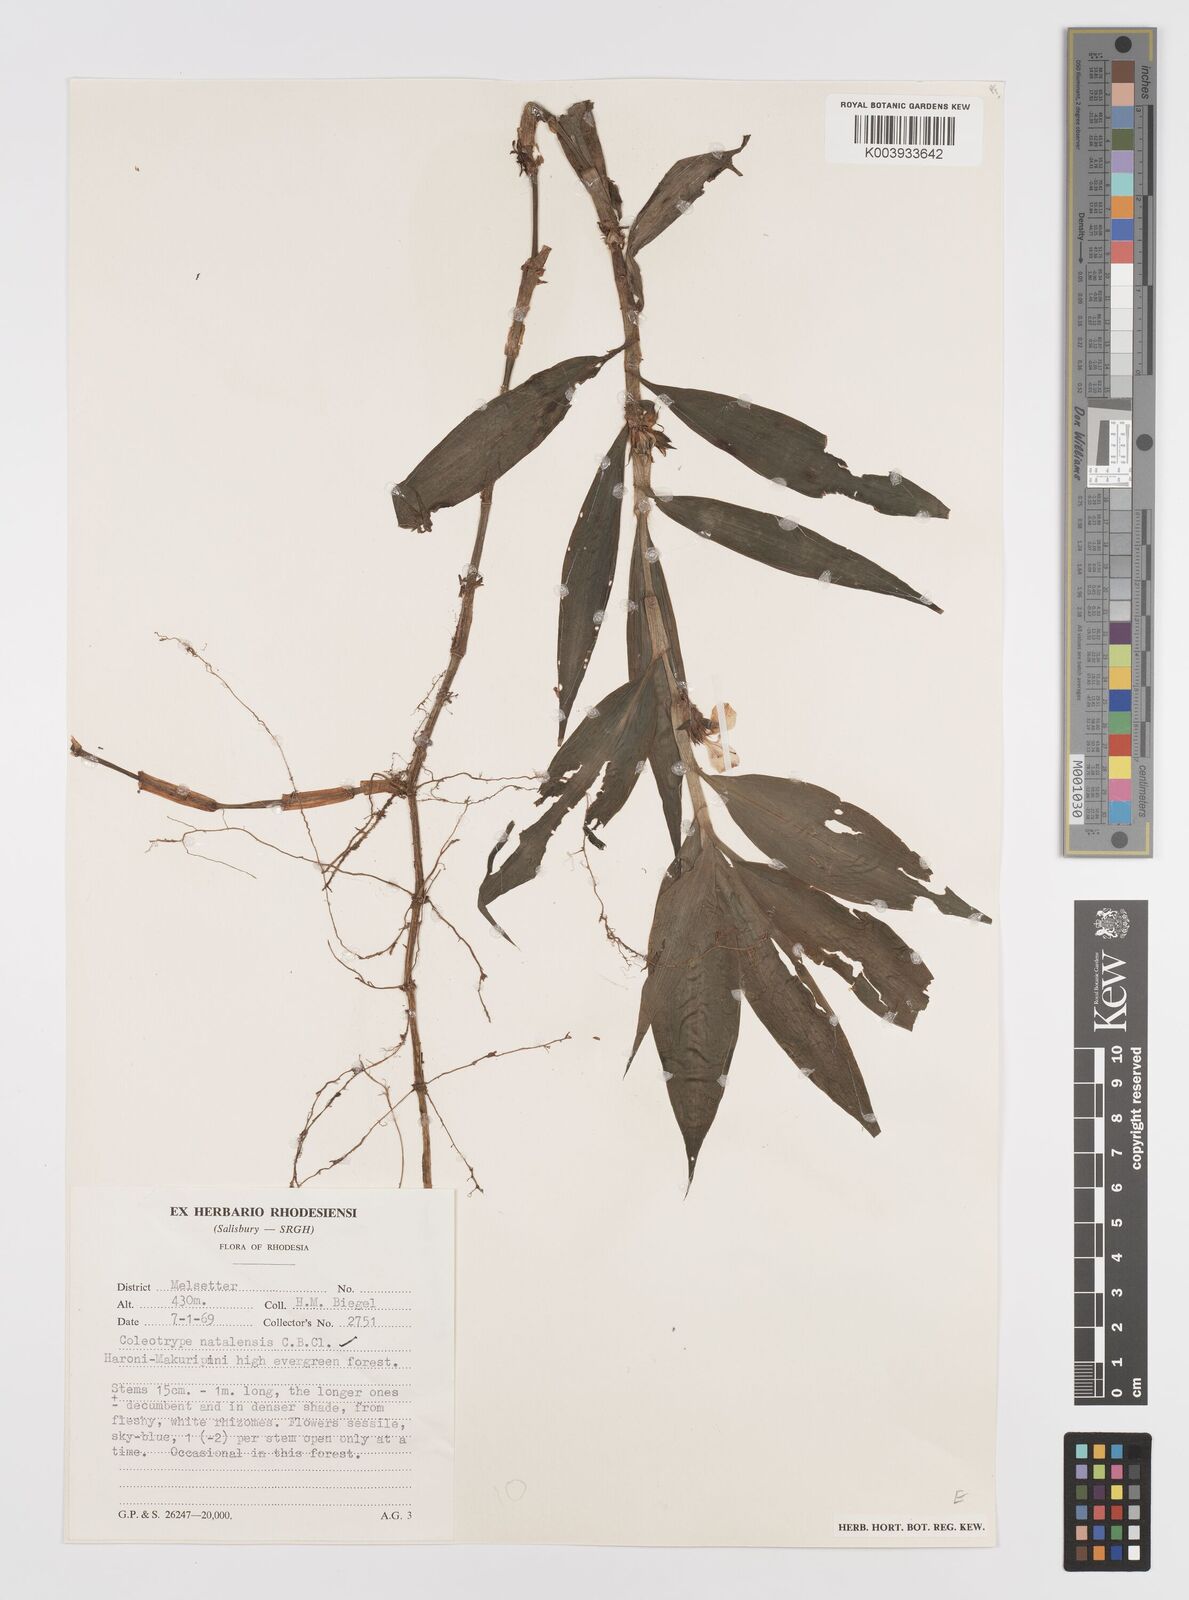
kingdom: Plantae
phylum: Tracheophyta
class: Liliopsida
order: Commelinales
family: Commelinaceae
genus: Coleotrype
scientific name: Coleotrype natalensis
